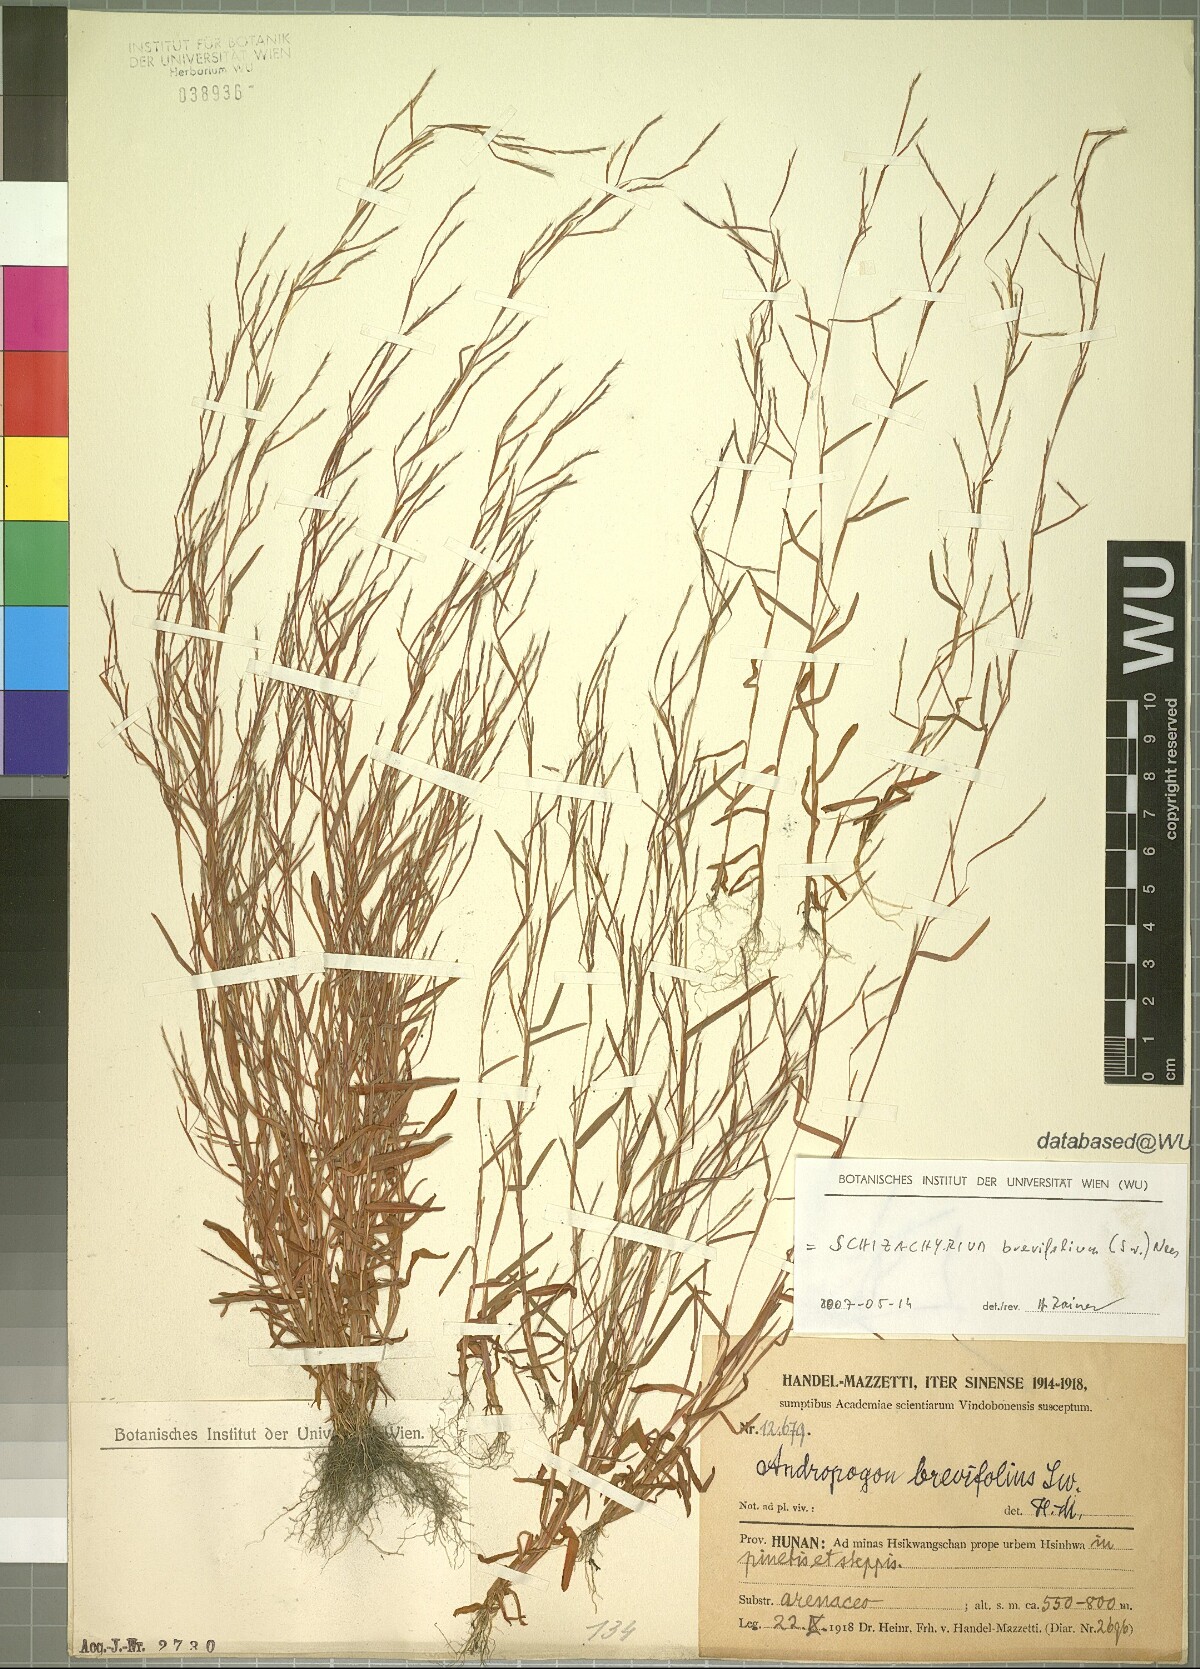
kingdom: Plantae
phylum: Tracheophyta
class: Liliopsida
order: Poales
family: Poaceae
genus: Schizachyrium
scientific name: Schizachyrium brevifolium
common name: Serillo dulce
